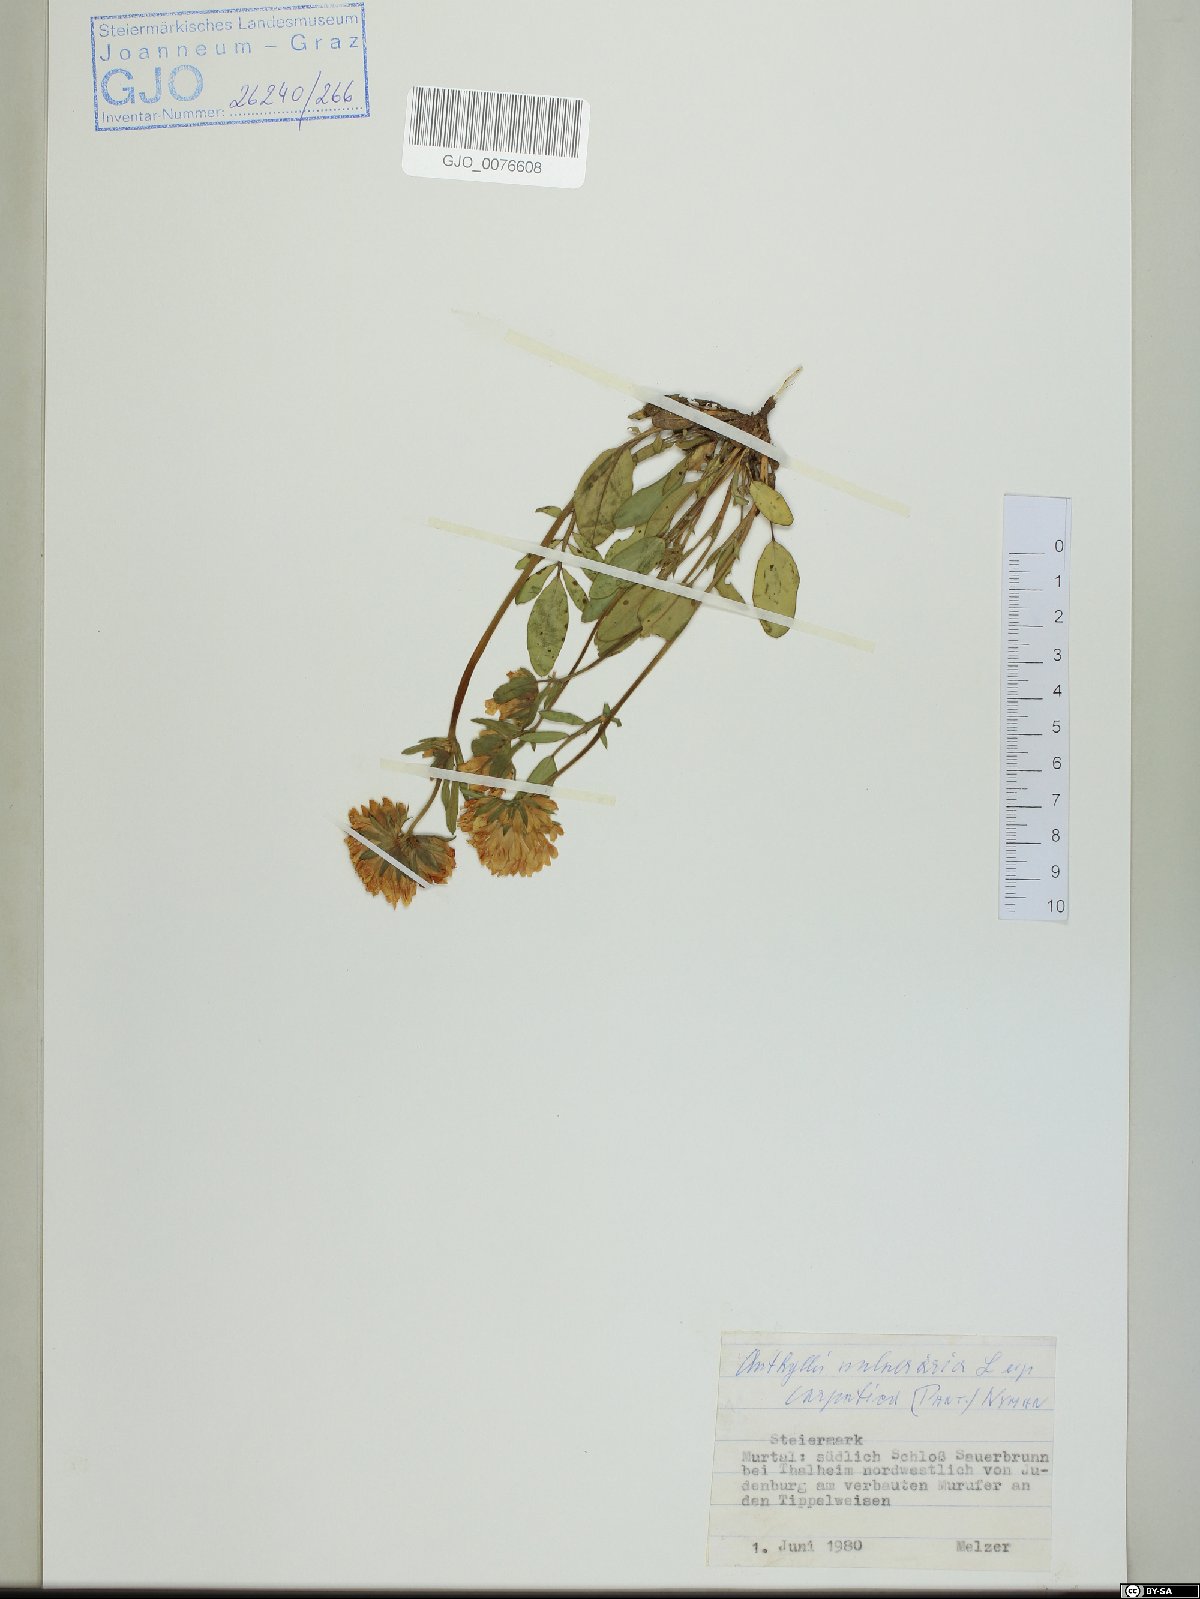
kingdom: Plantae
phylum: Tracheophyta
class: Magnoliopsida
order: Fabales
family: Fabaceae
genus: Anthyllis
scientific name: Anthyllis vulneraria
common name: Kidney vetch
